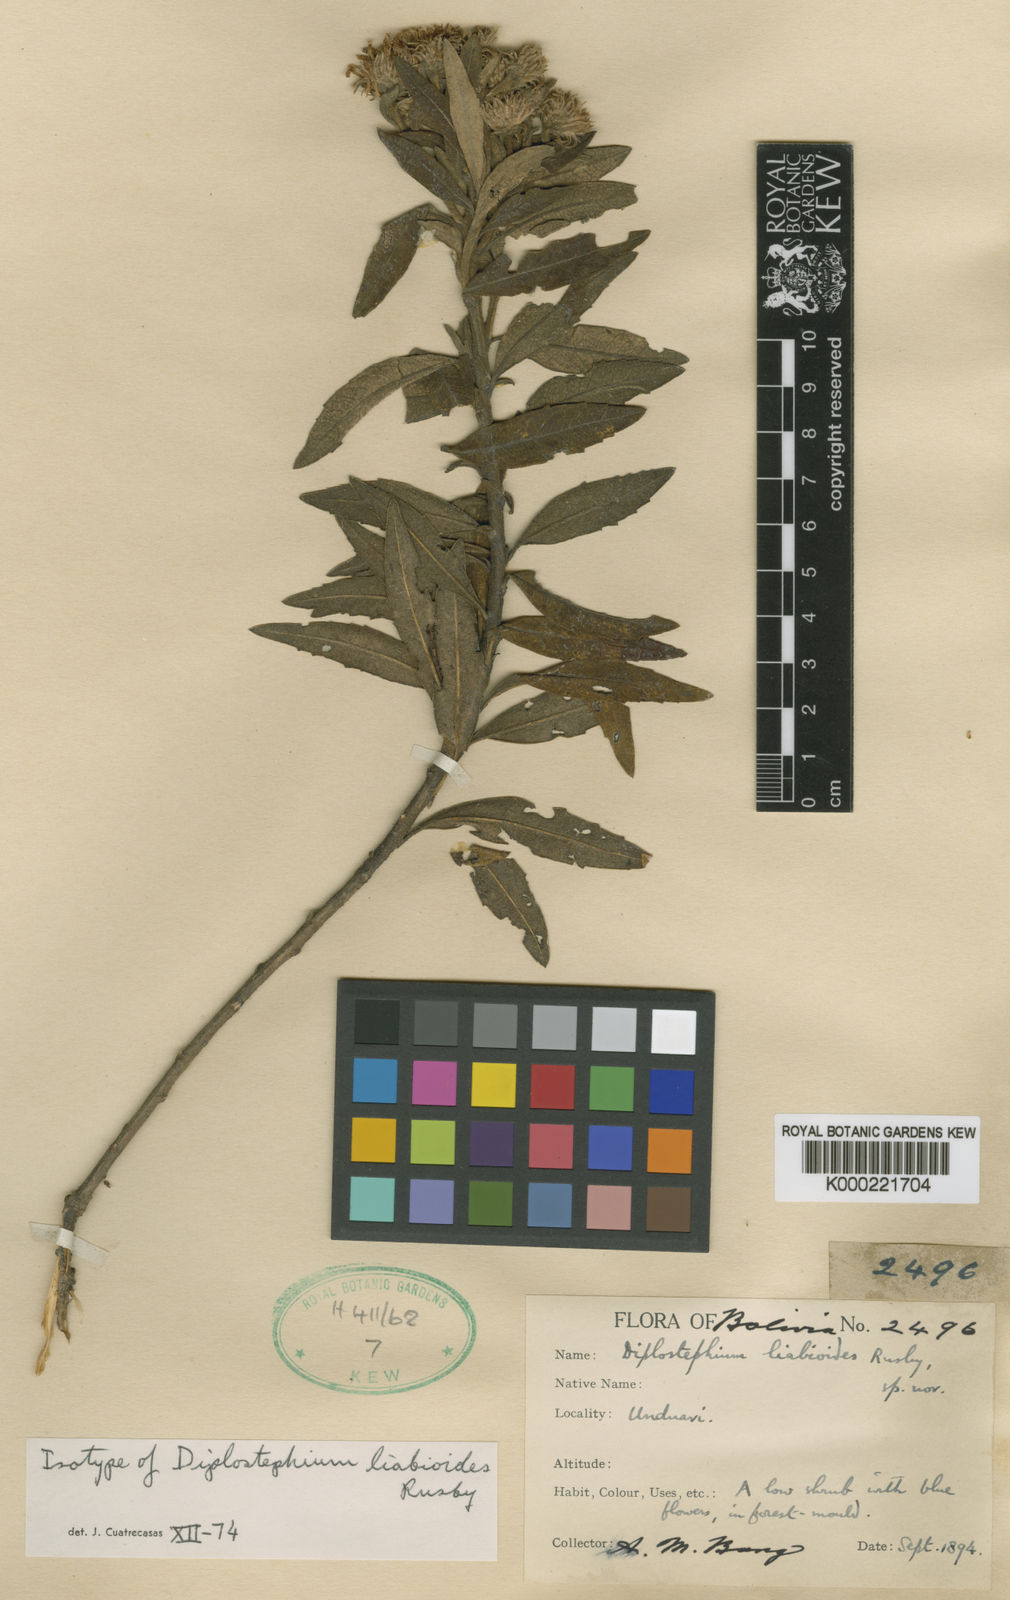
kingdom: Plantae
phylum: Tracheophyta
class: Magnoliopsida
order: Asterales
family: Asteraceae
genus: Diplostephium
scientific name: Diplostephium haenkei
